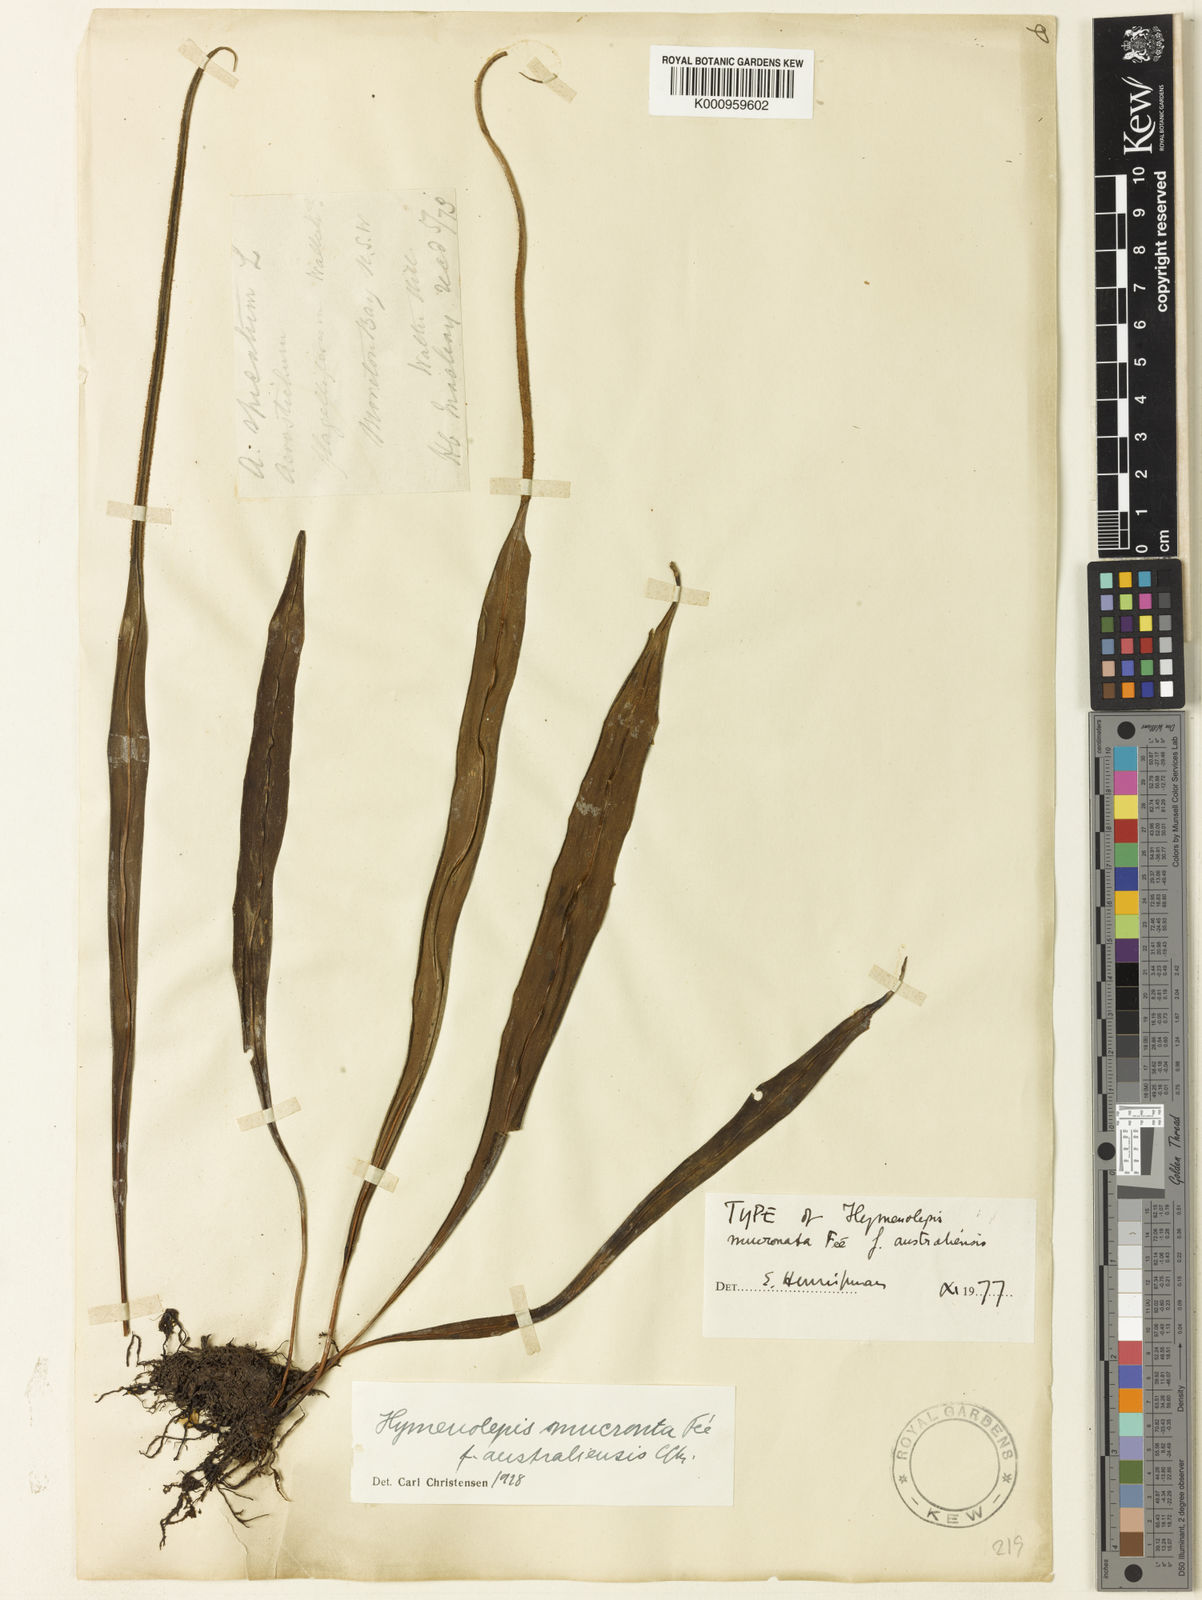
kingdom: Plantae
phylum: Tracheophyta
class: Polypodiopsida
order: Polypodiales
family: Polypodiaceae
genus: Lepisorus
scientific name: Lepisorus mucronatus
